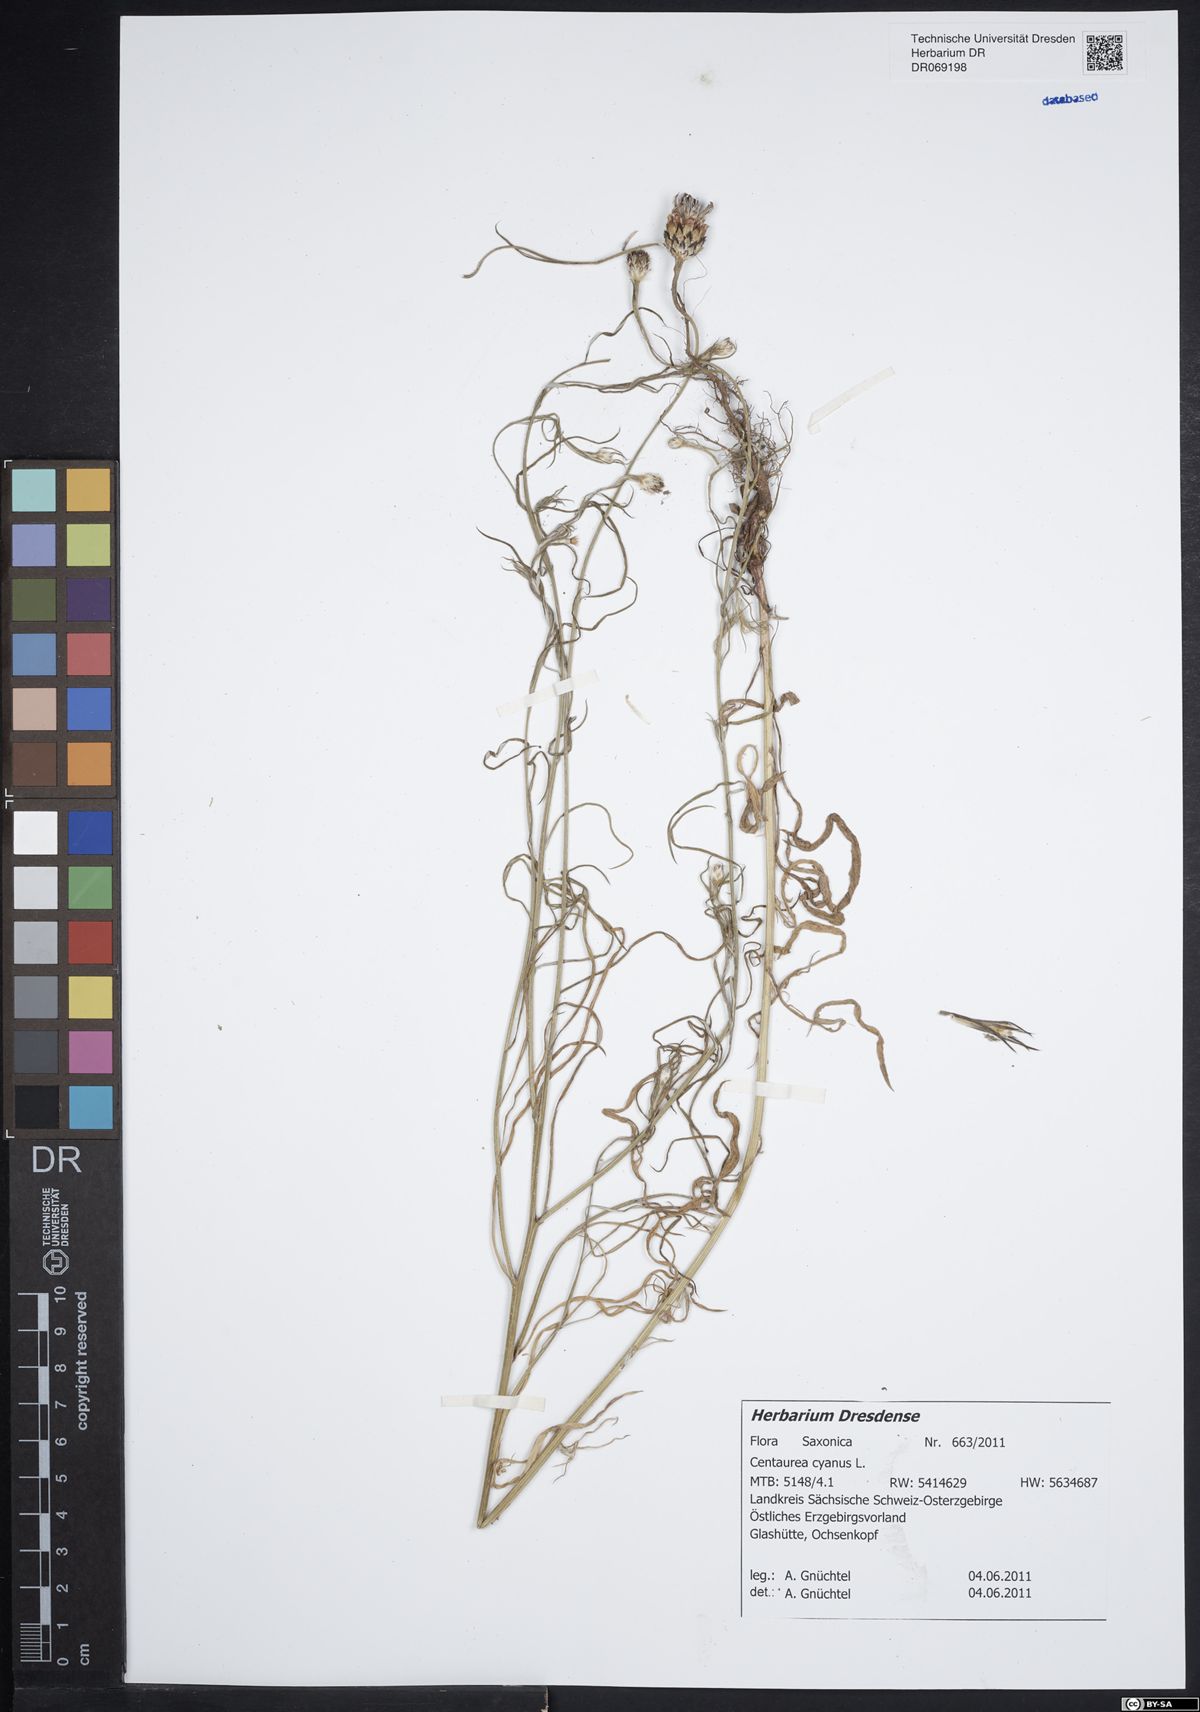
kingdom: Plantae
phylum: Tracheophyta
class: Magnoliopsida
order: Asterales
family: Asteraceae
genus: Centaurea
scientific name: Centaurea cyanus
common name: Cornflower
